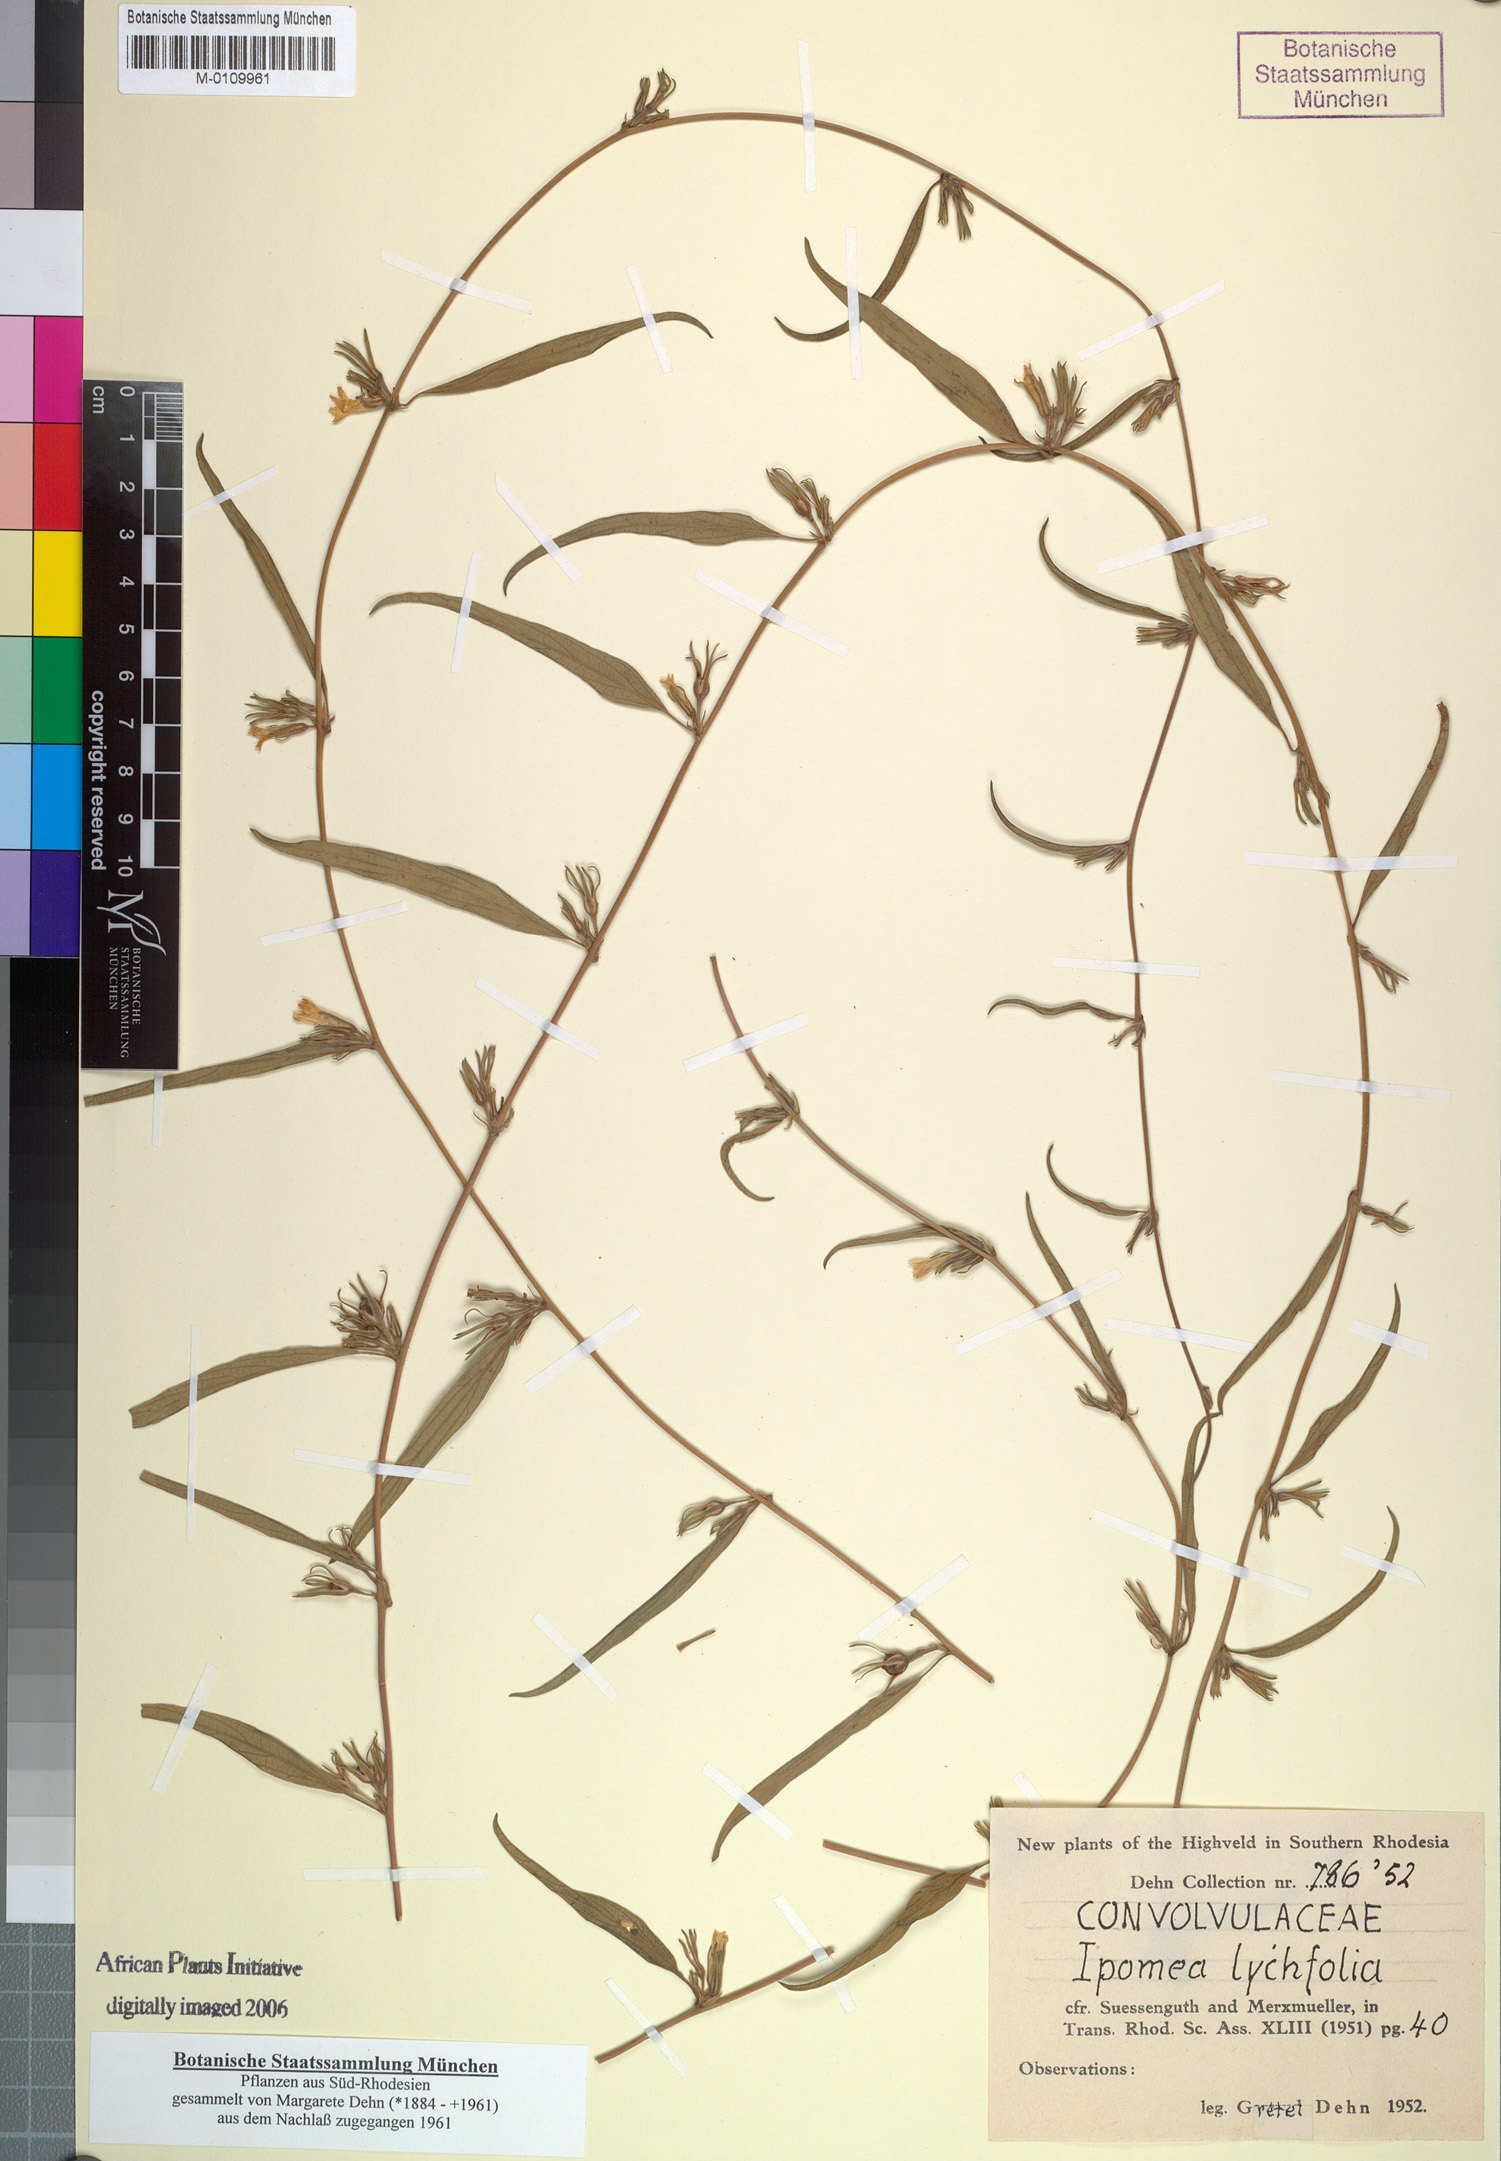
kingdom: Plantae
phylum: Tracheophyta
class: Magnoliopsida
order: Solanales
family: Convolvulaceae
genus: Ipomoea
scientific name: Ipomoea gracilisepala
